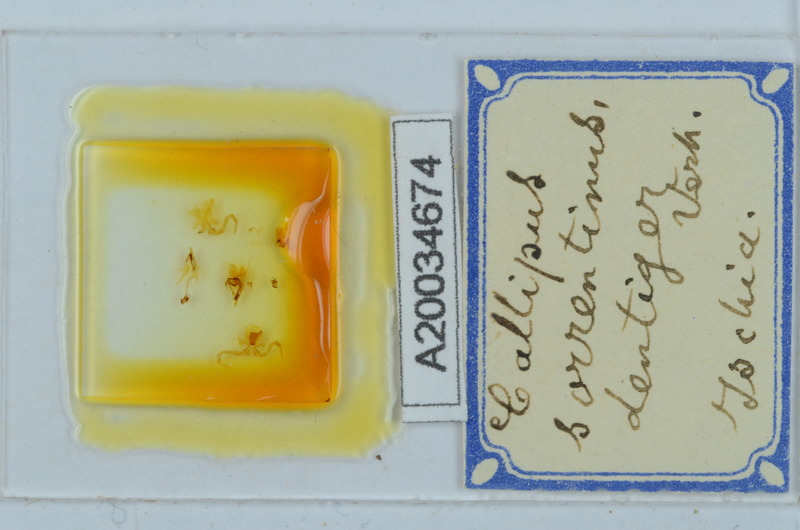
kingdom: Animalia
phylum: Arthropoda
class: Diplopoda
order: Callipodida
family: Callipodidae
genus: Callipus
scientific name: Callipus foetidissimus
